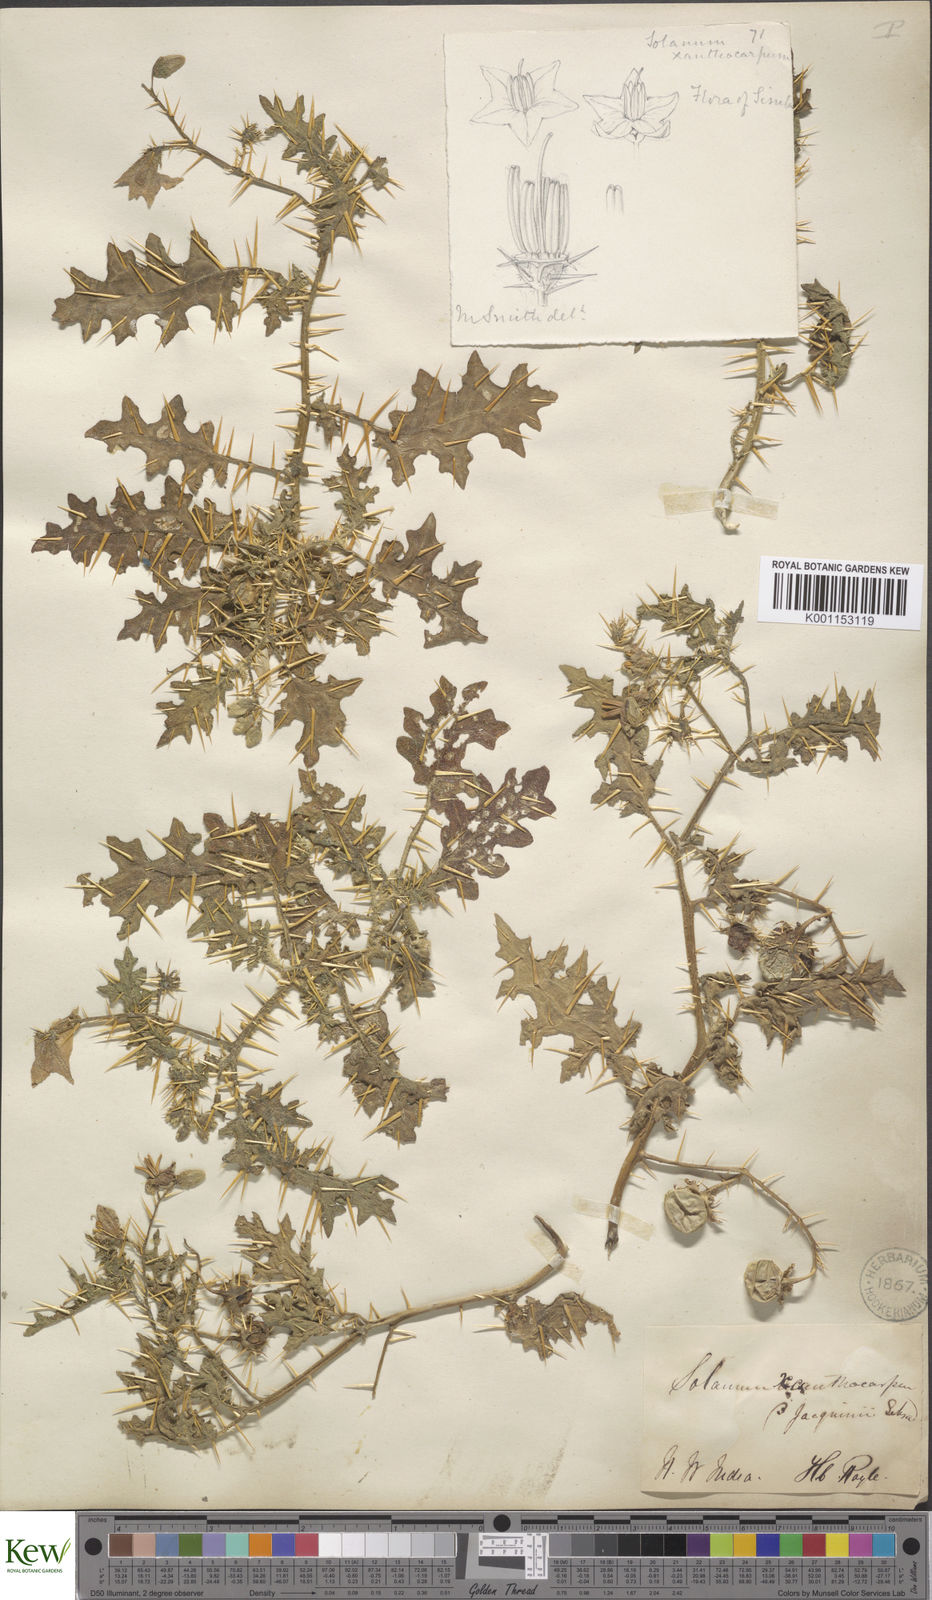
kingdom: Plantae
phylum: Tracheophyta
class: Magnoliopsida
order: Solanales
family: Solanaceae
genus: Solanum
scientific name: Solanum virginianum
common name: Surattense nightshade
